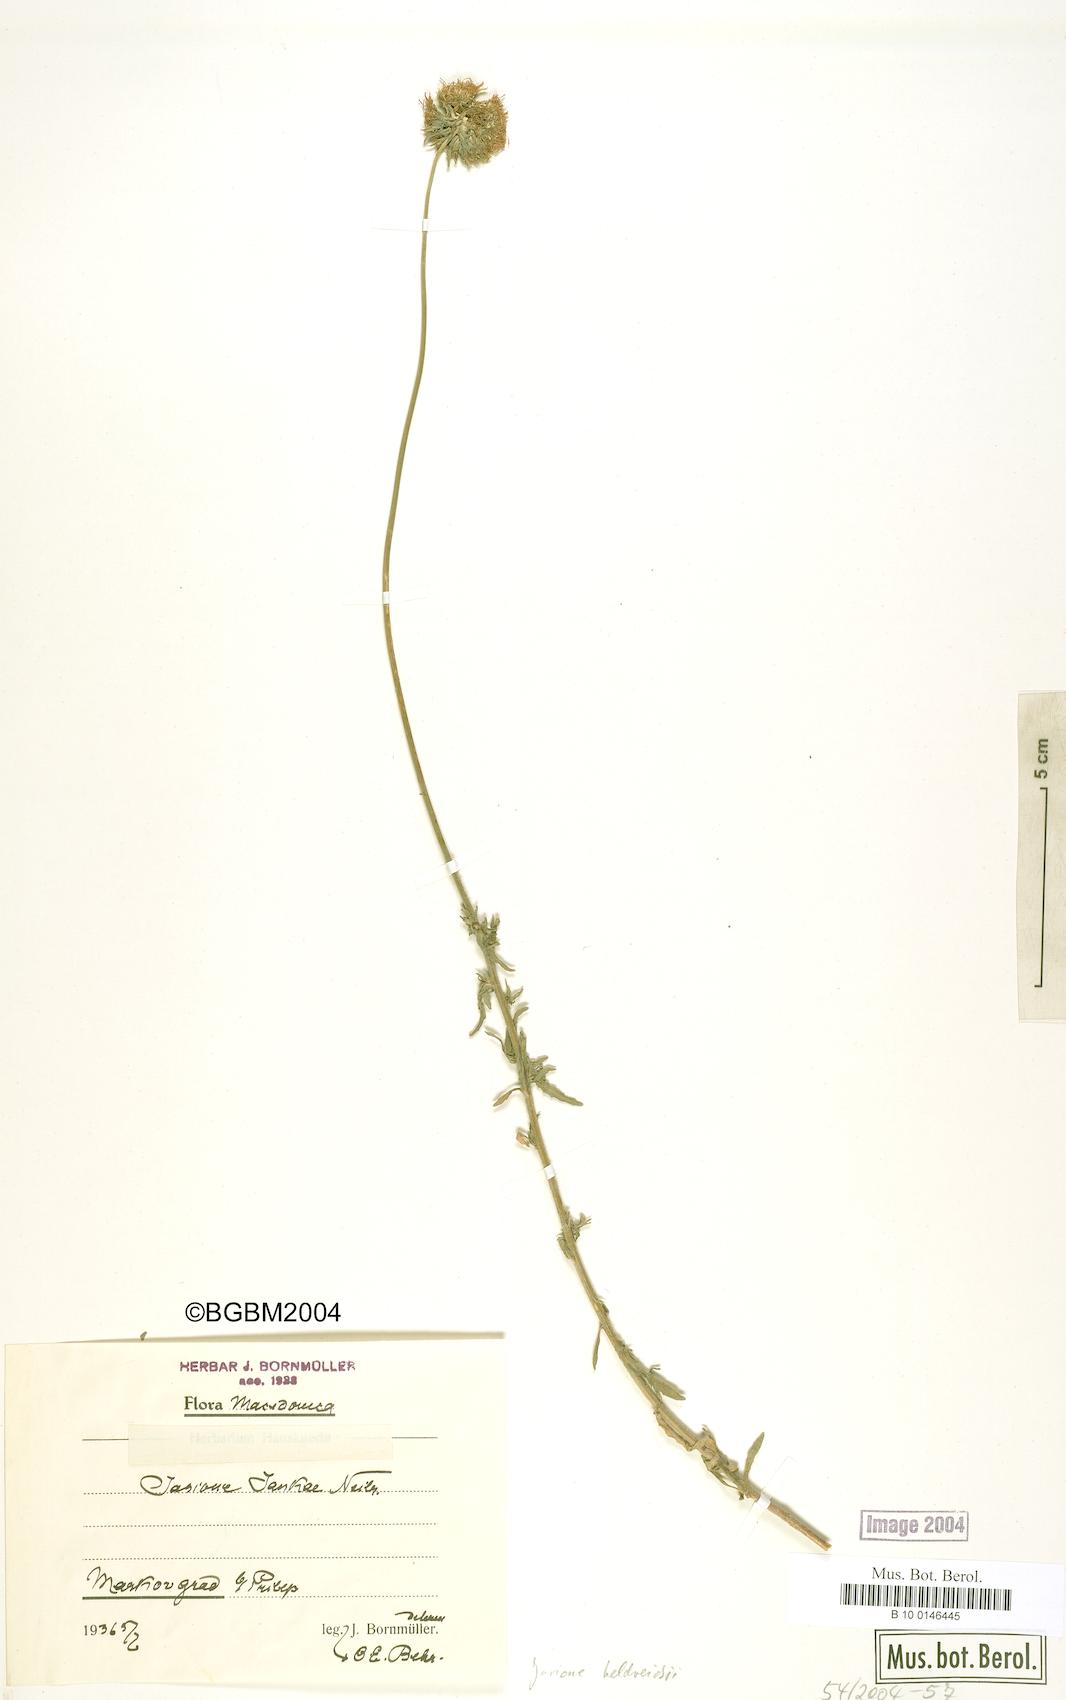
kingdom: Plantae
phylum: Tracheophyta
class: Magnoliopsida
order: Asterales
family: Campanulaceae
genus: Jasione
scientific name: Jasione heldreichii
